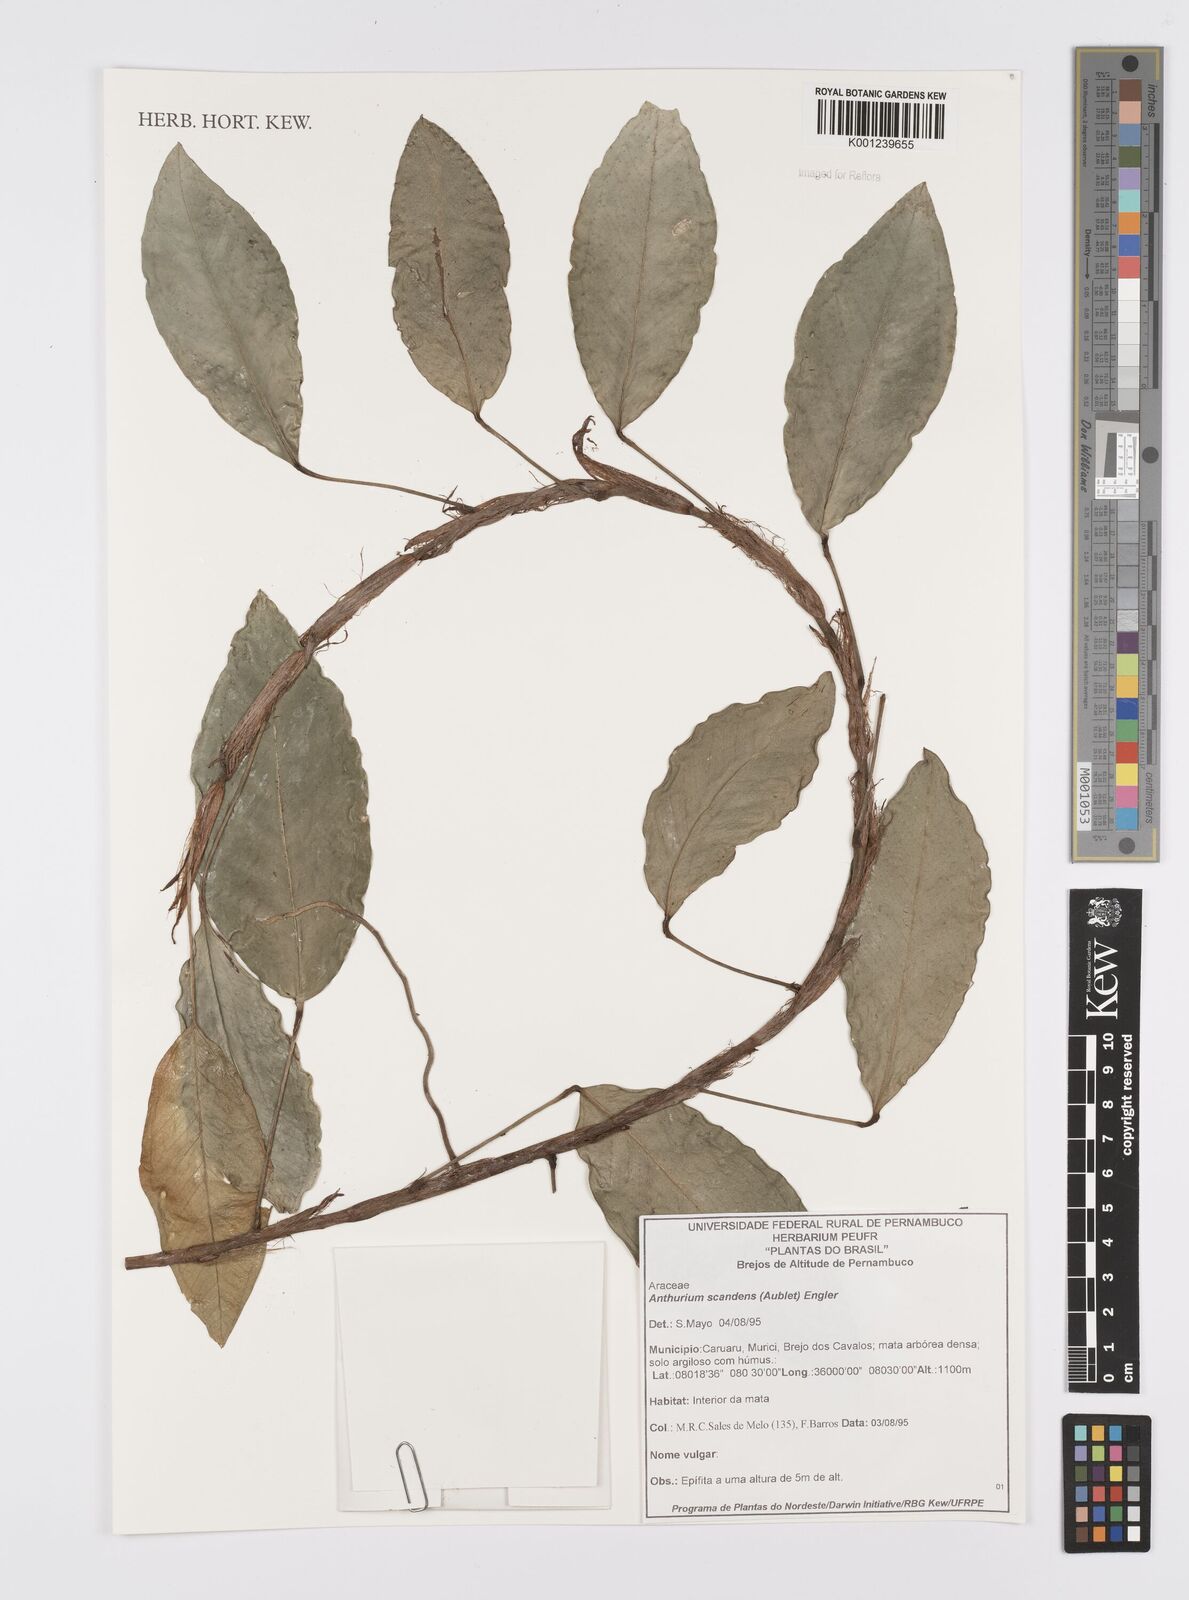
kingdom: Plantae
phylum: Tracheophyta
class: Liliopsida
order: Alismatales
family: Araceae
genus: Anthurium
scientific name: Anthurium scandens
